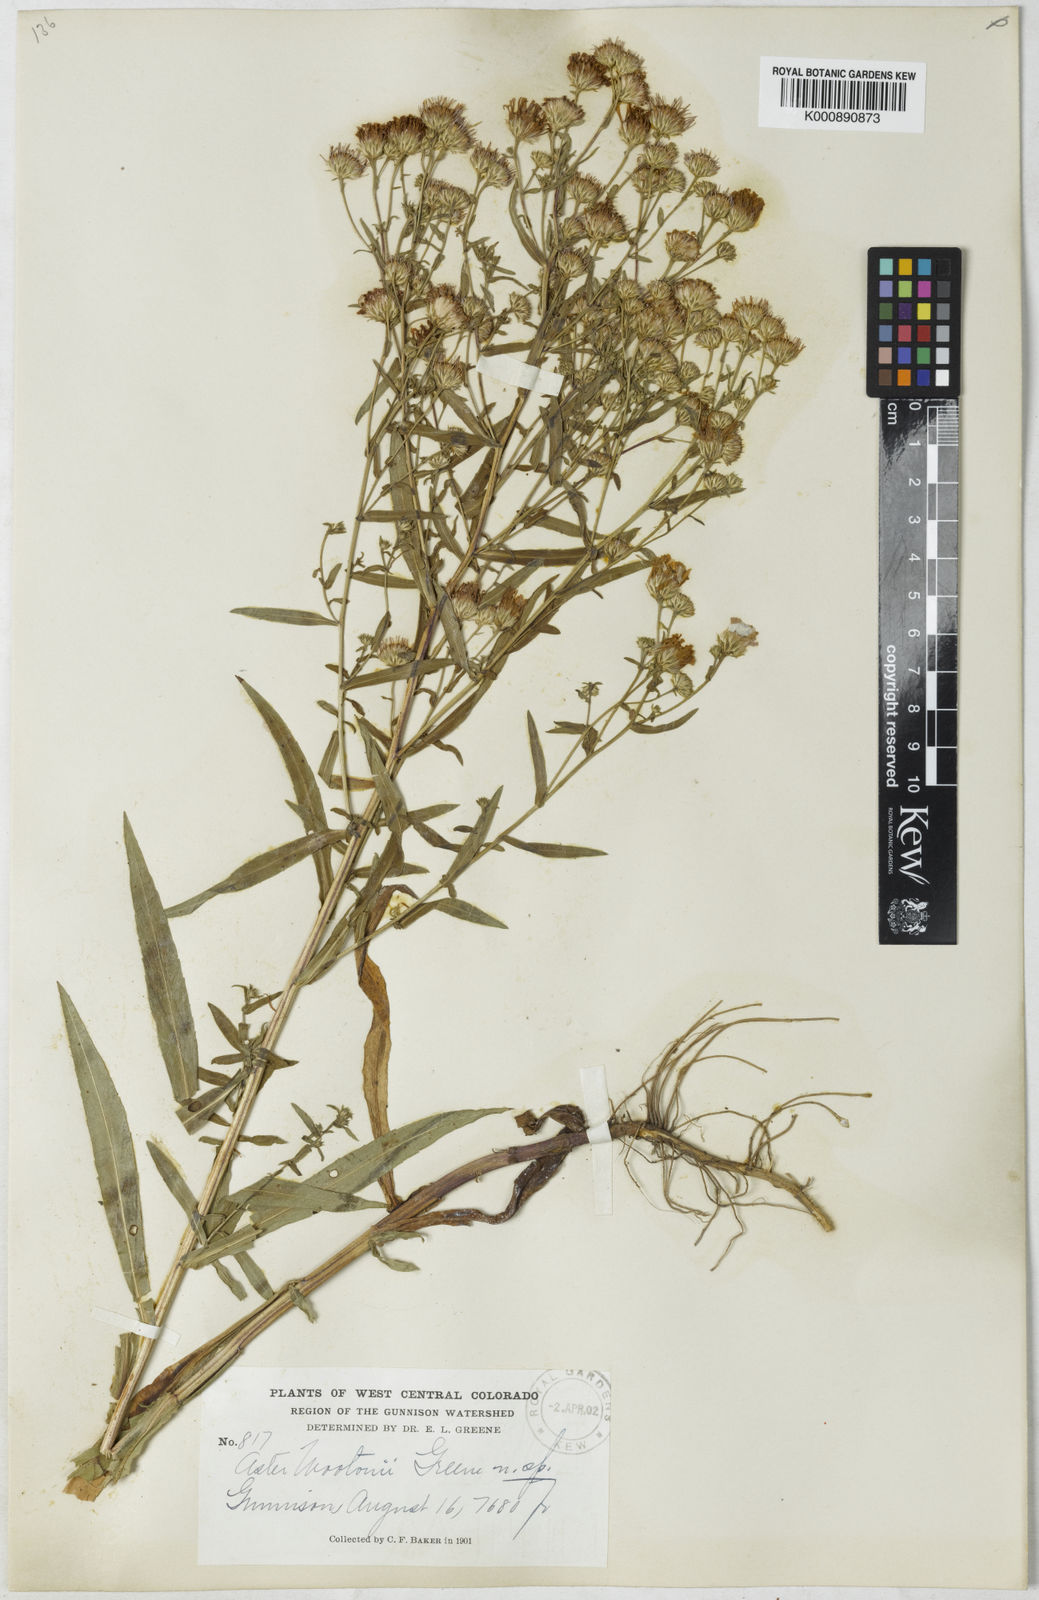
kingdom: Plantae
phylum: Tracheophyta
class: Magnoliopsida
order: Asterales
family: Asteraceae
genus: Aster
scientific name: Aster
